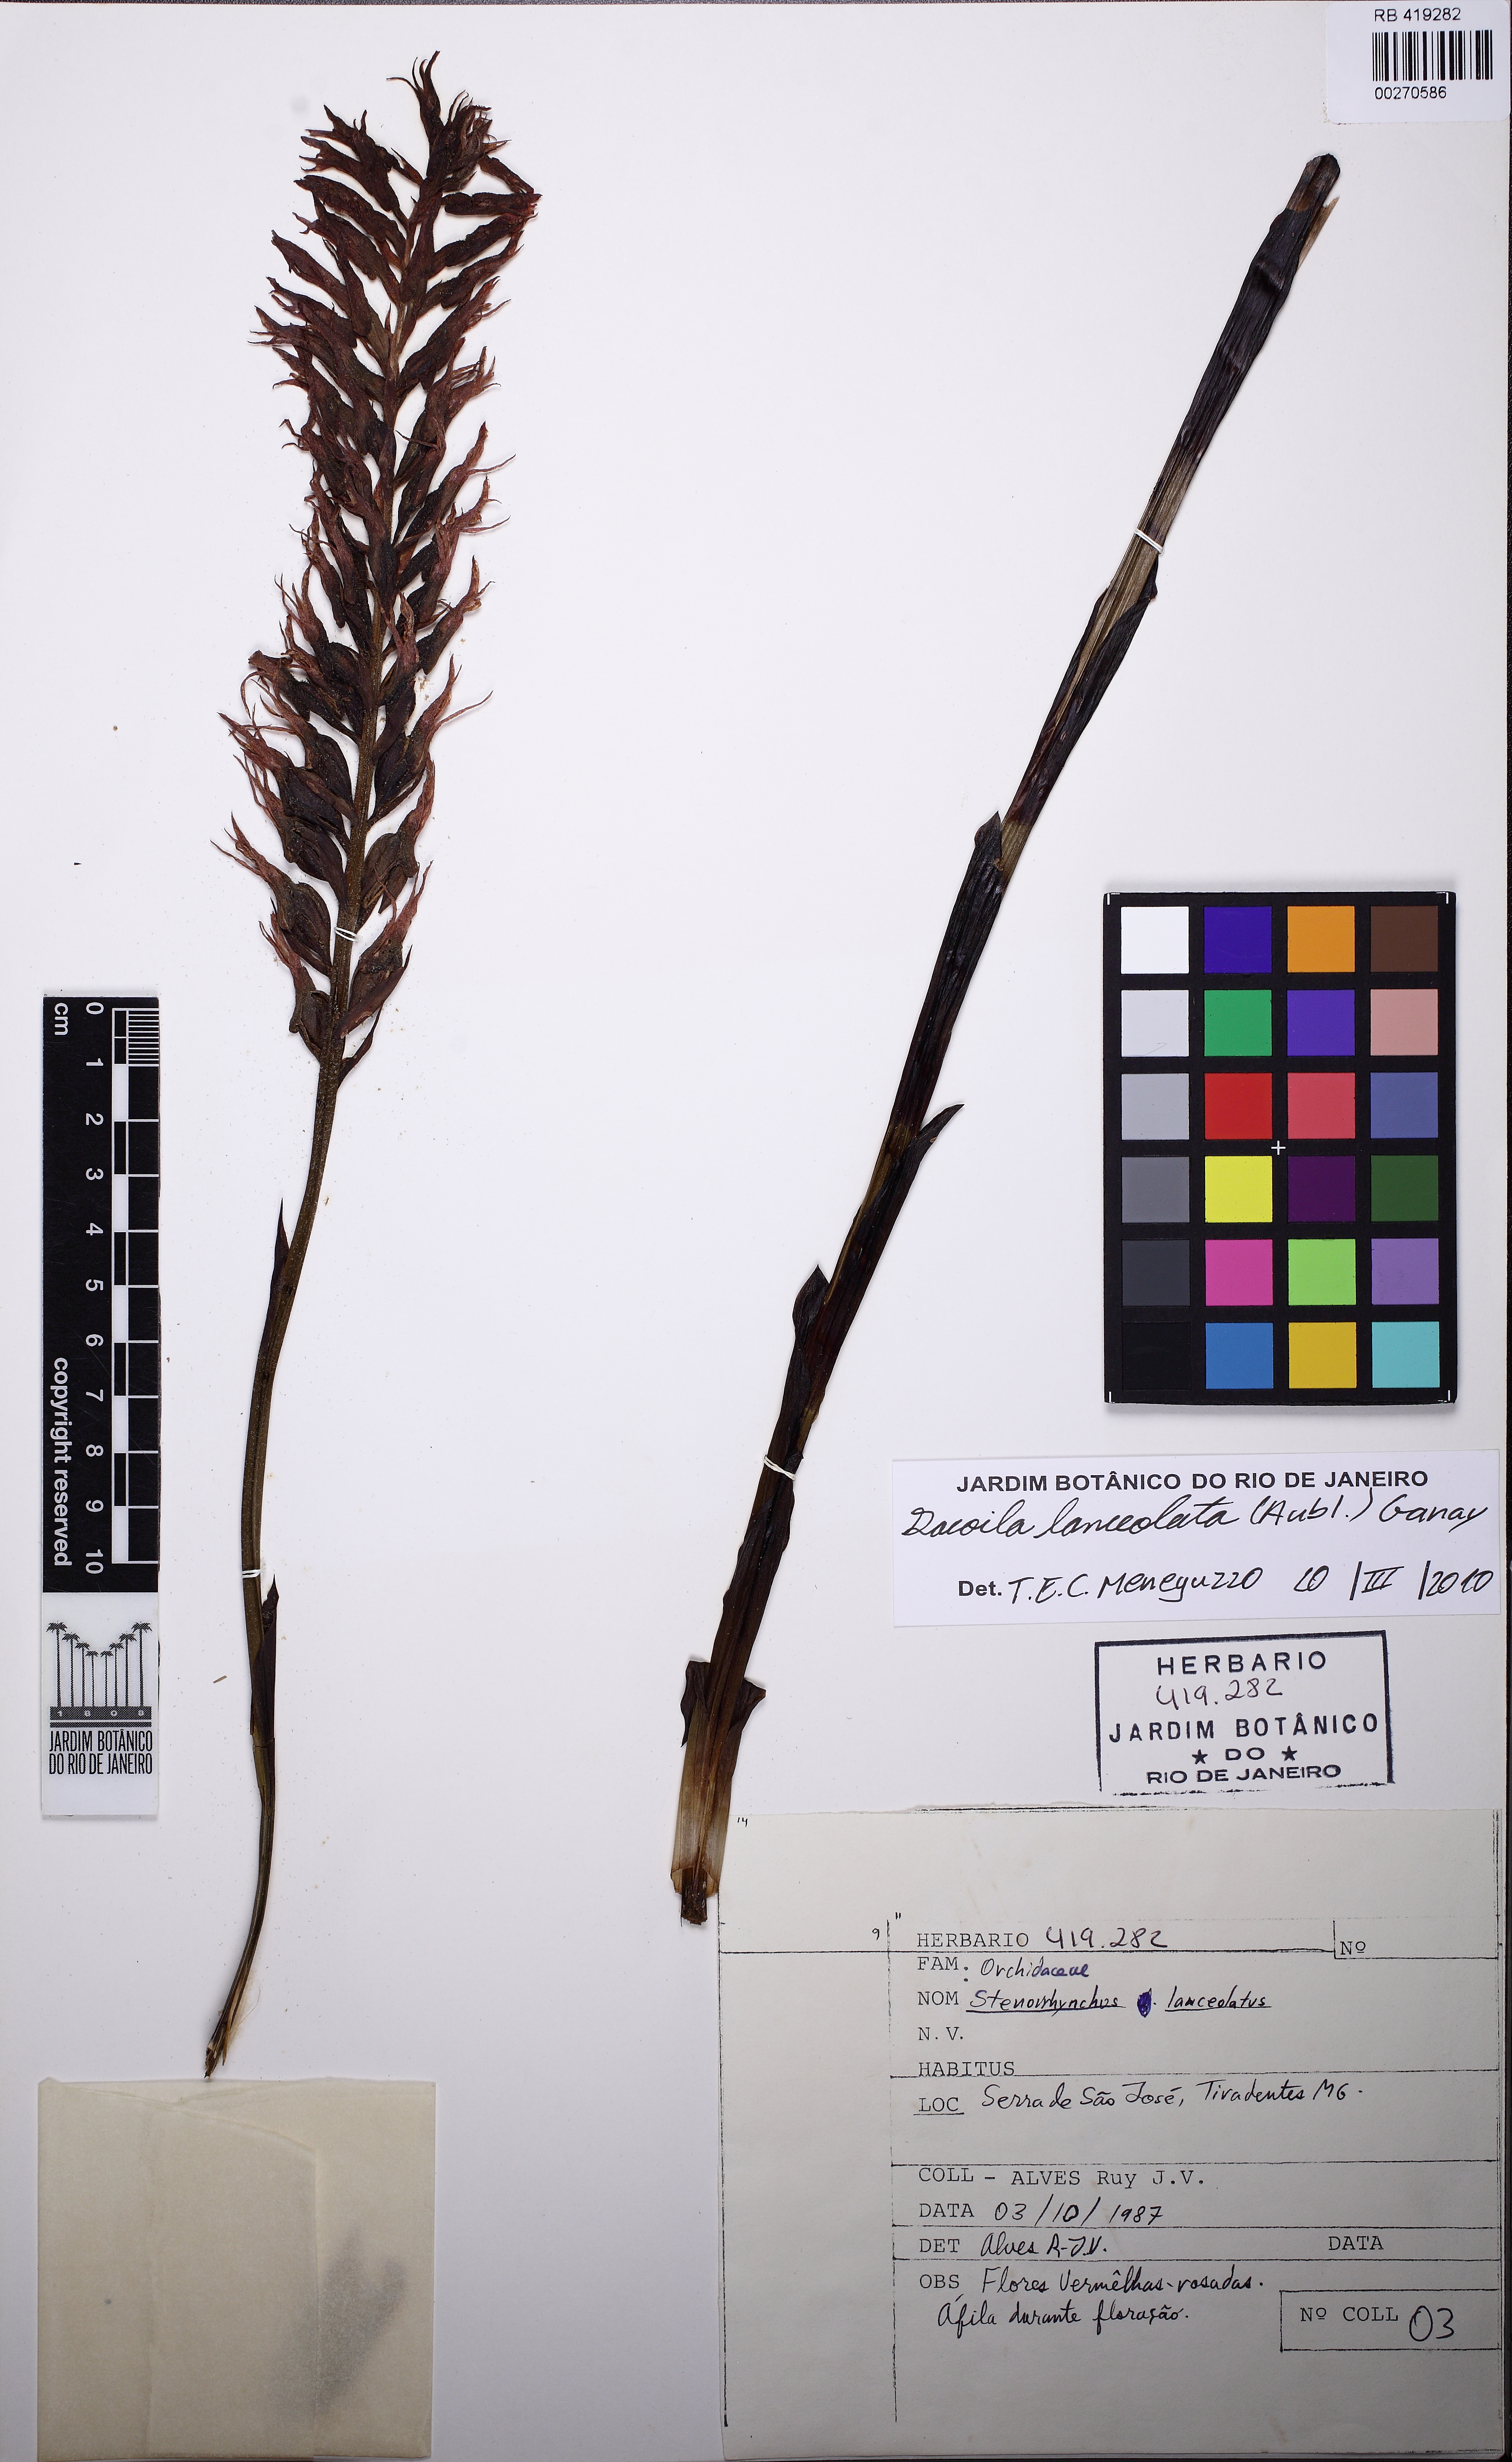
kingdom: Plantae
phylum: Tracheophyta
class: Liliopsida
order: Asparagales
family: Orchidaceae
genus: Sacoila
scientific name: Sacoila lanceolata
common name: Leafless beaked ladiestresses
